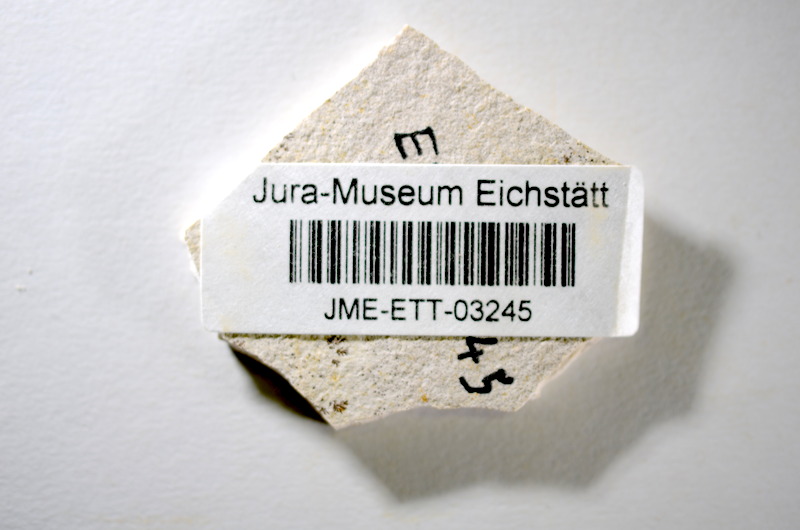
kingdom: Animalia
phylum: Chordata
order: Salmoniformes
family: Orthogonikleithridae
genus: Orthogonikleithrus
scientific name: Orthogonikleithrus hoelli
